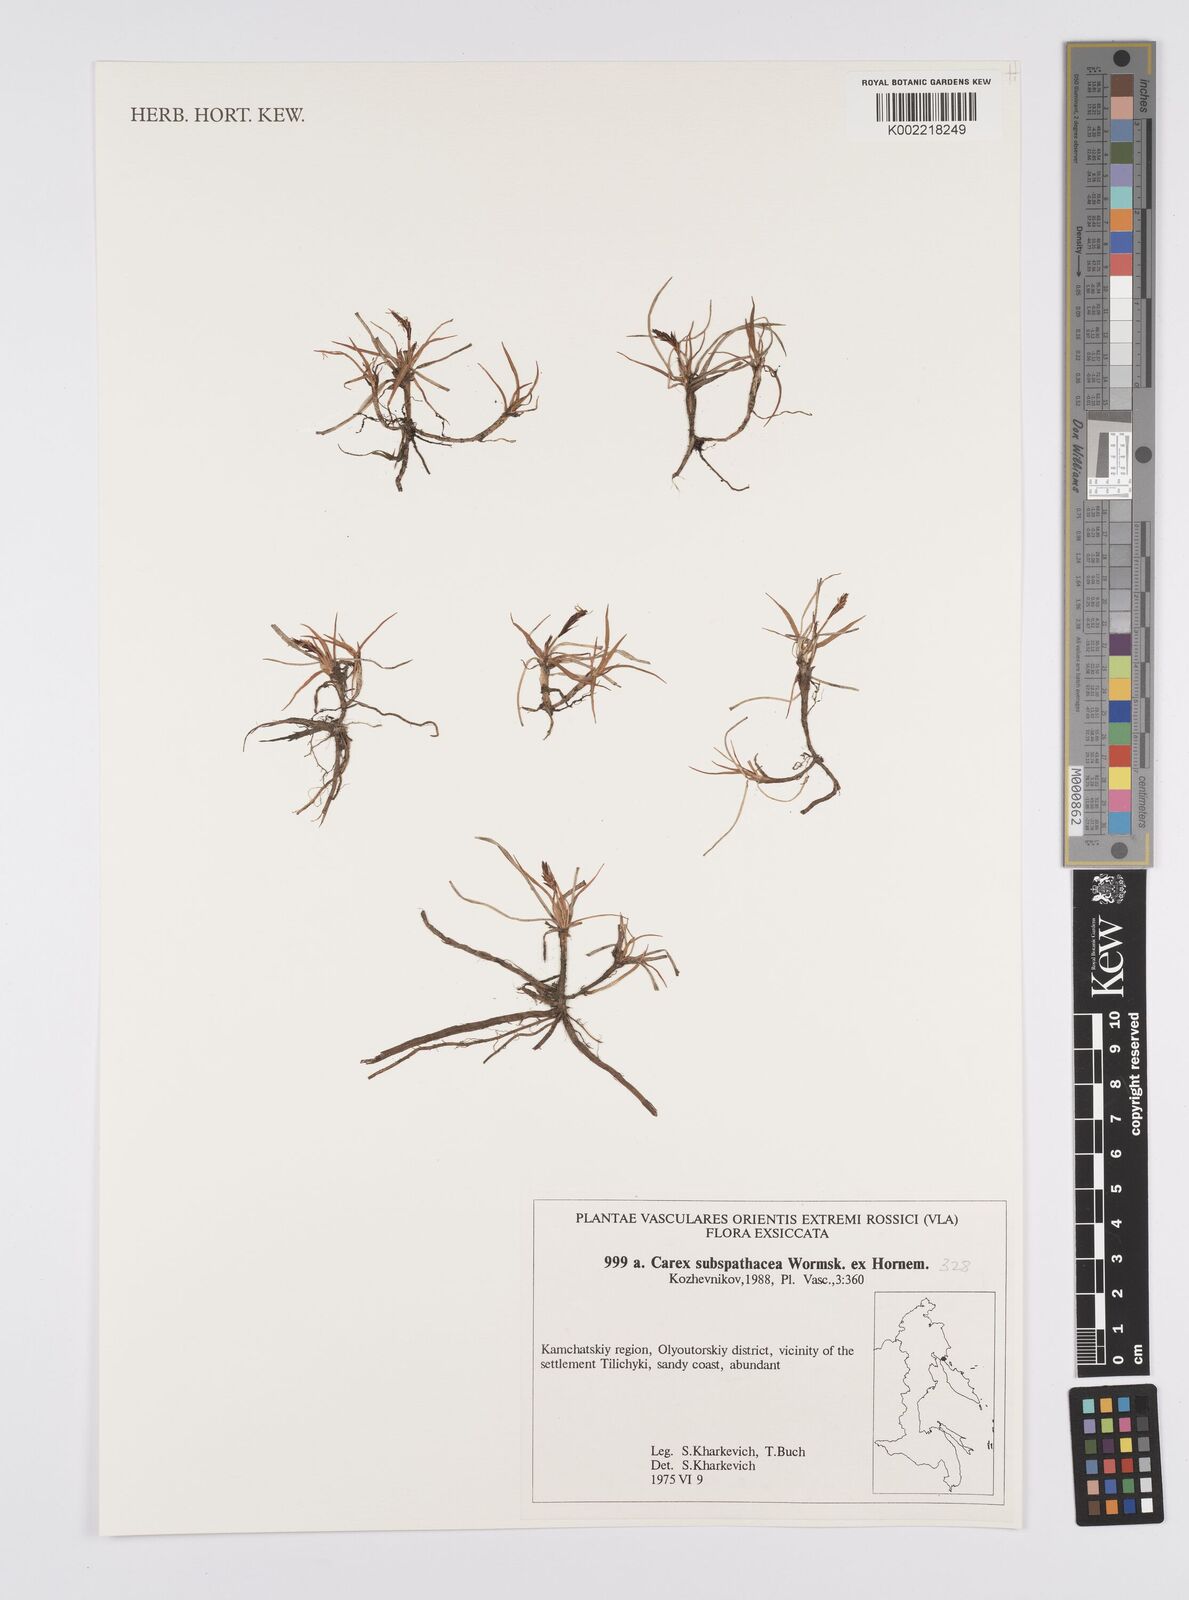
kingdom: Plantae
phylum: Tracheophyta
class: Liliopsida
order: Poales
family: Cyperaceae
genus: Carex
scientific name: Carex subspathacea
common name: Hoppner's sedge
